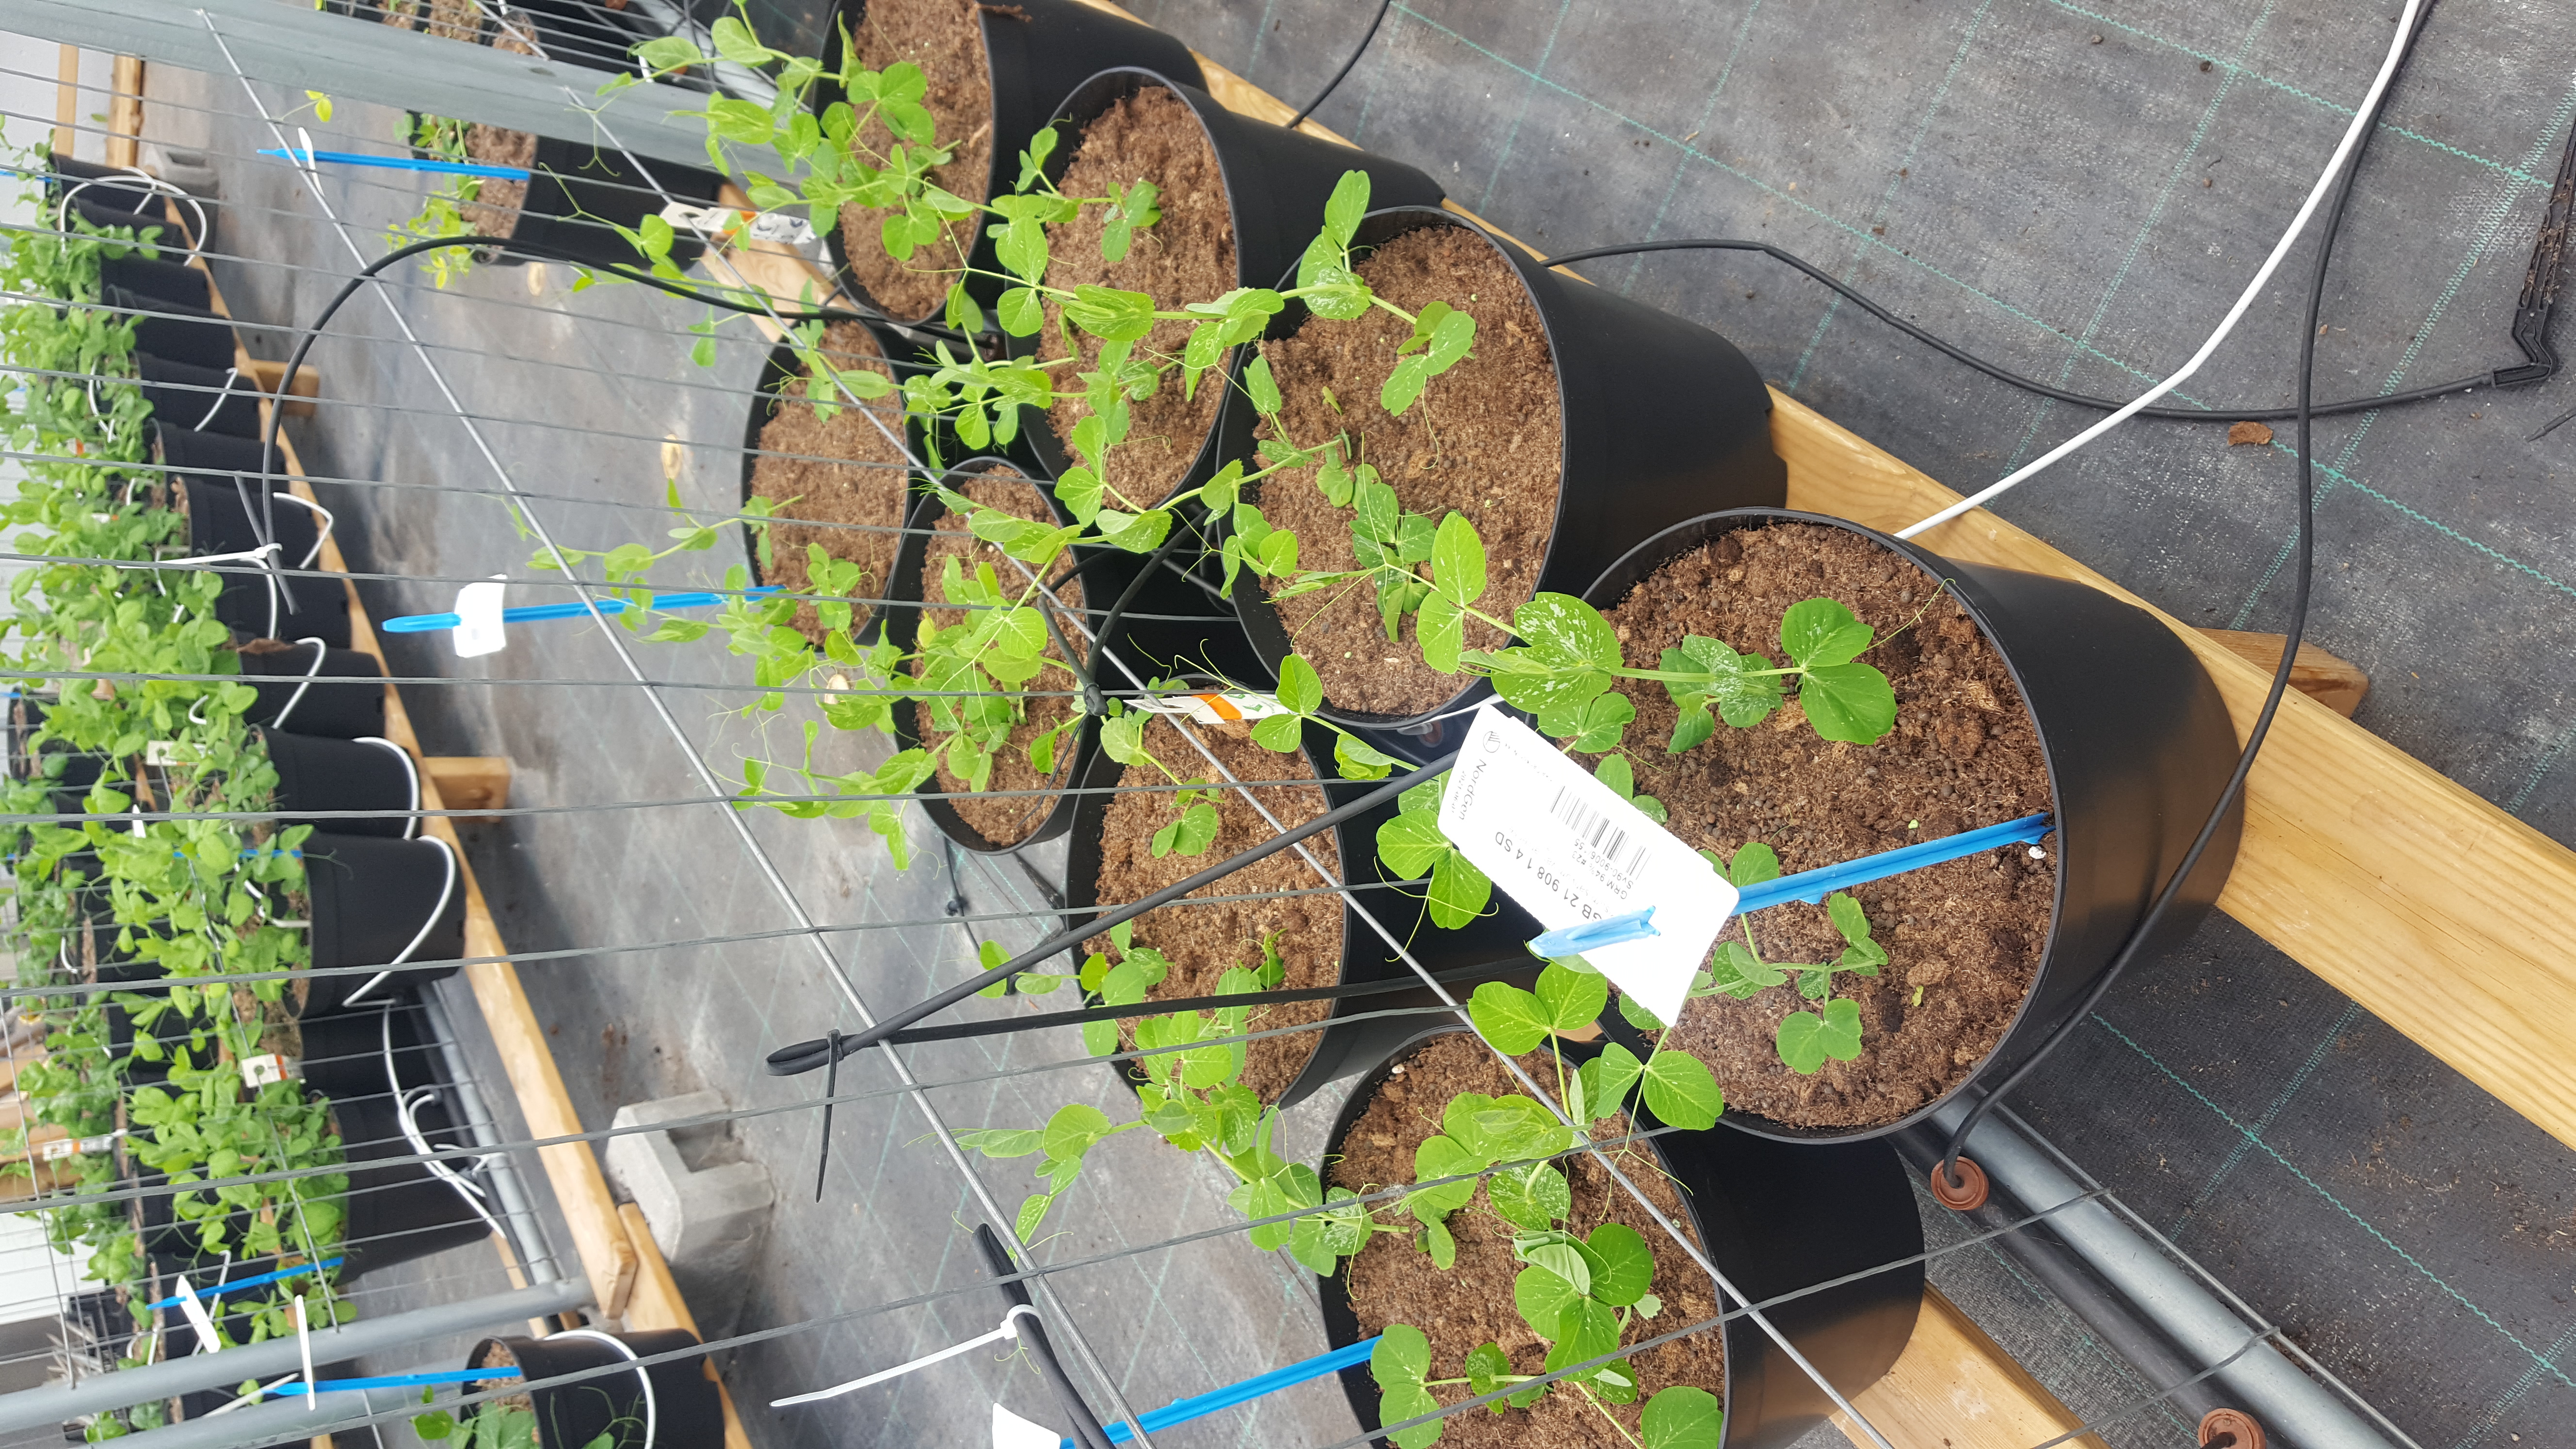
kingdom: Plantae
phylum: Tracheophyta
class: Magnoliopsida
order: Fabales
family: Fabaceae
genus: Lathyrus
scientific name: Lathyrus oleraceus
